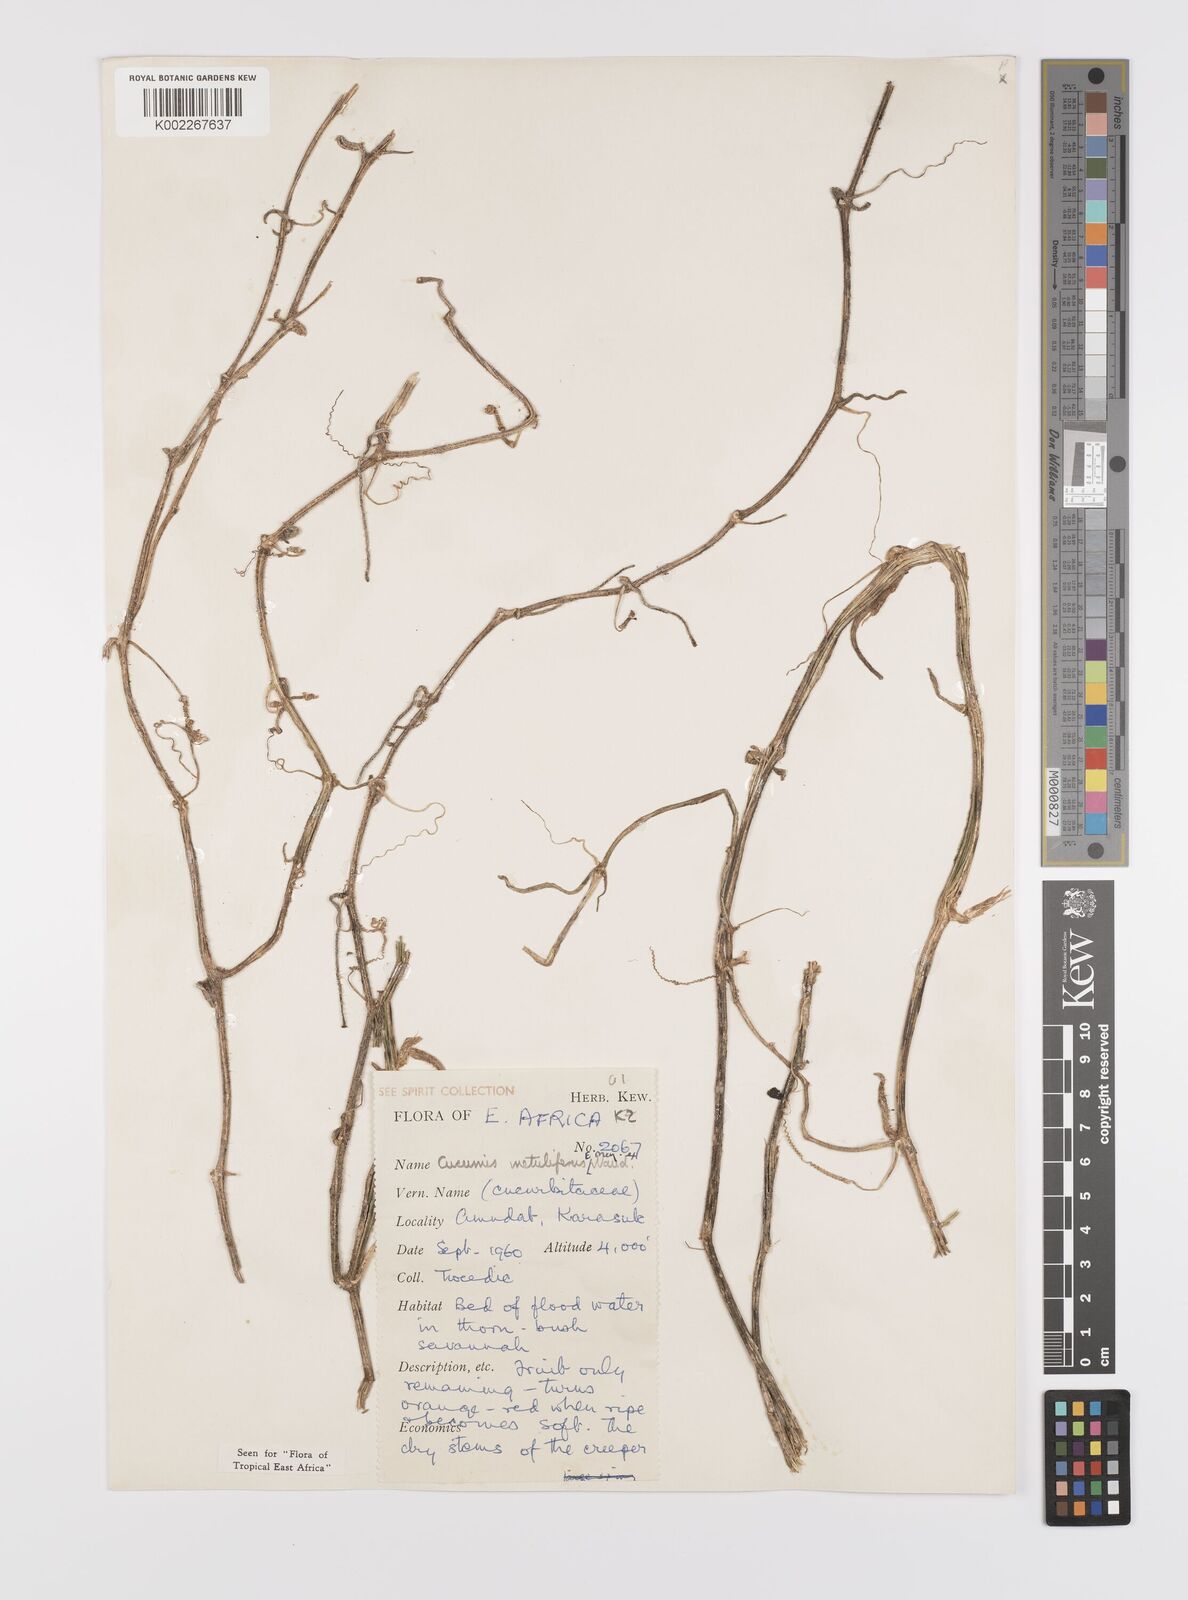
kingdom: Plantae
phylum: Tracheophyta
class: Magnoliopsida
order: Cucurbitales
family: Cucurbitaceae
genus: Cucumis
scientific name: Cucumis metuliferus
